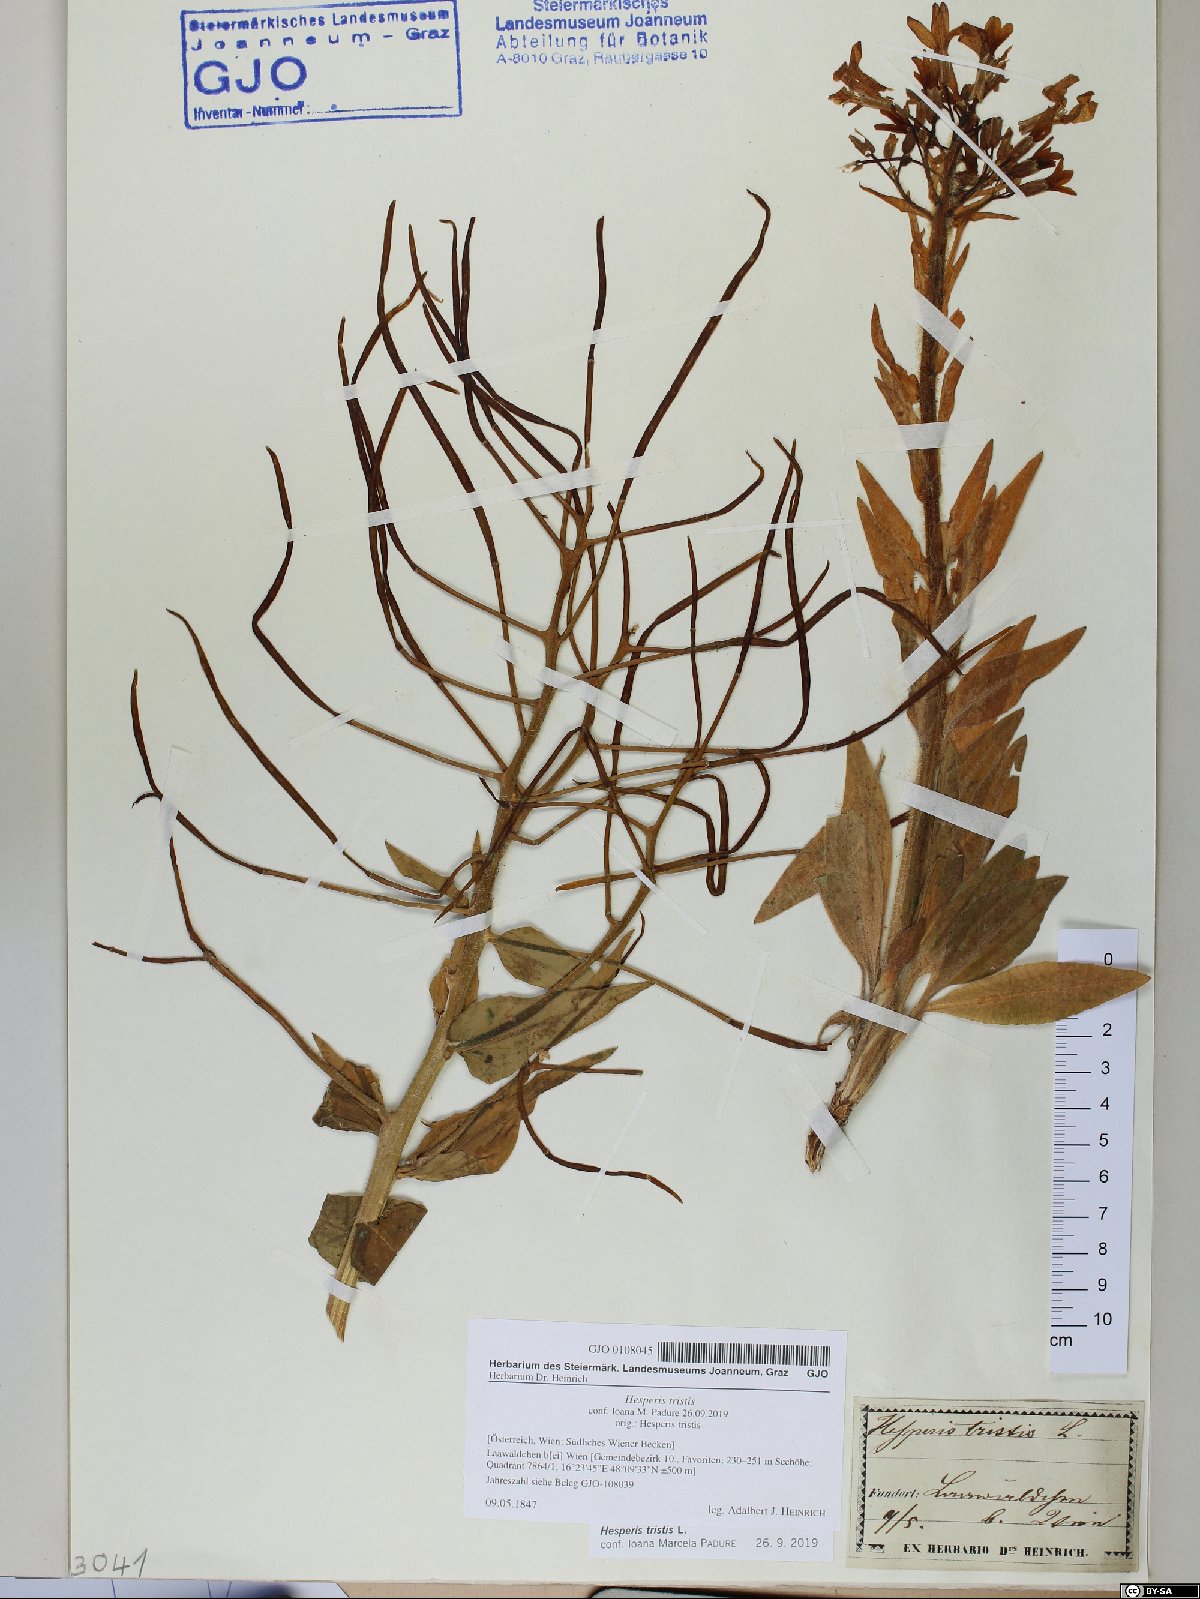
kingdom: Plantae
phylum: Tracheophyta
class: Magnoliopsida
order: Brassicales
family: Brassicaceae
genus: Hesperis
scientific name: Hesperis tristis
